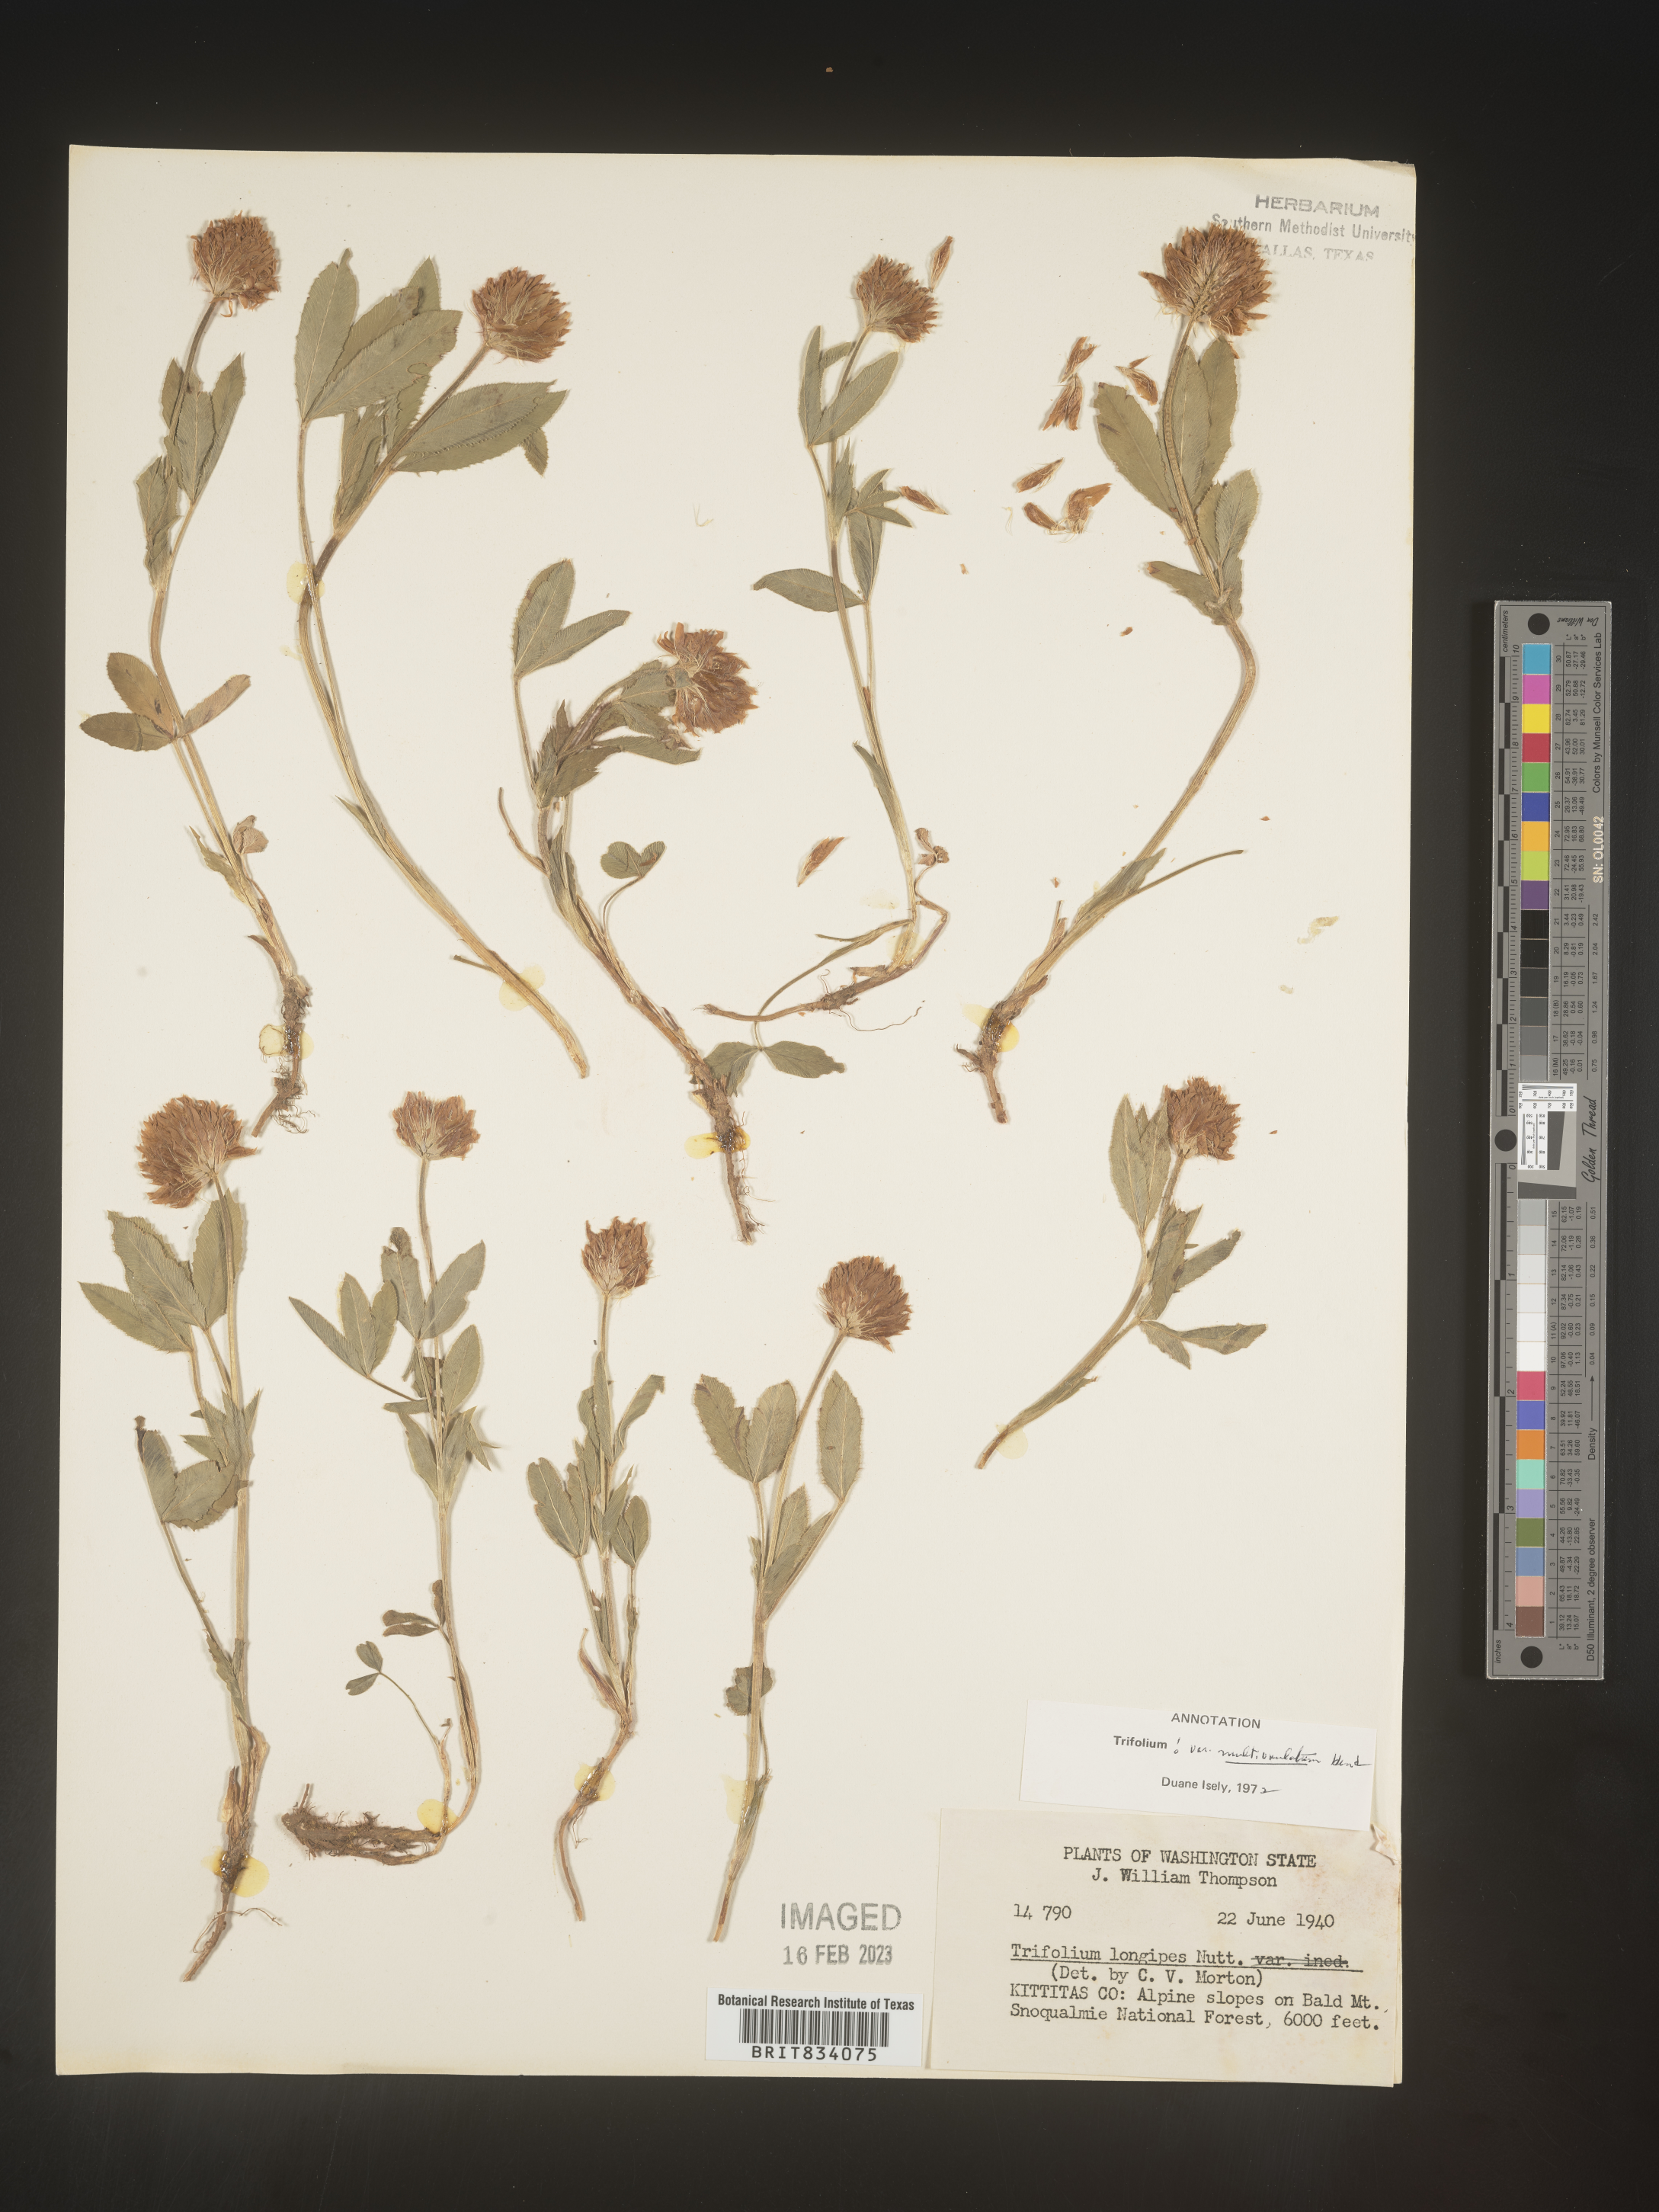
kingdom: Plantae
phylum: Tracheophyta
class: Magnoliopsida
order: Fabales
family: Fabaceae
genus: Trifolium
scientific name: Trifolium
